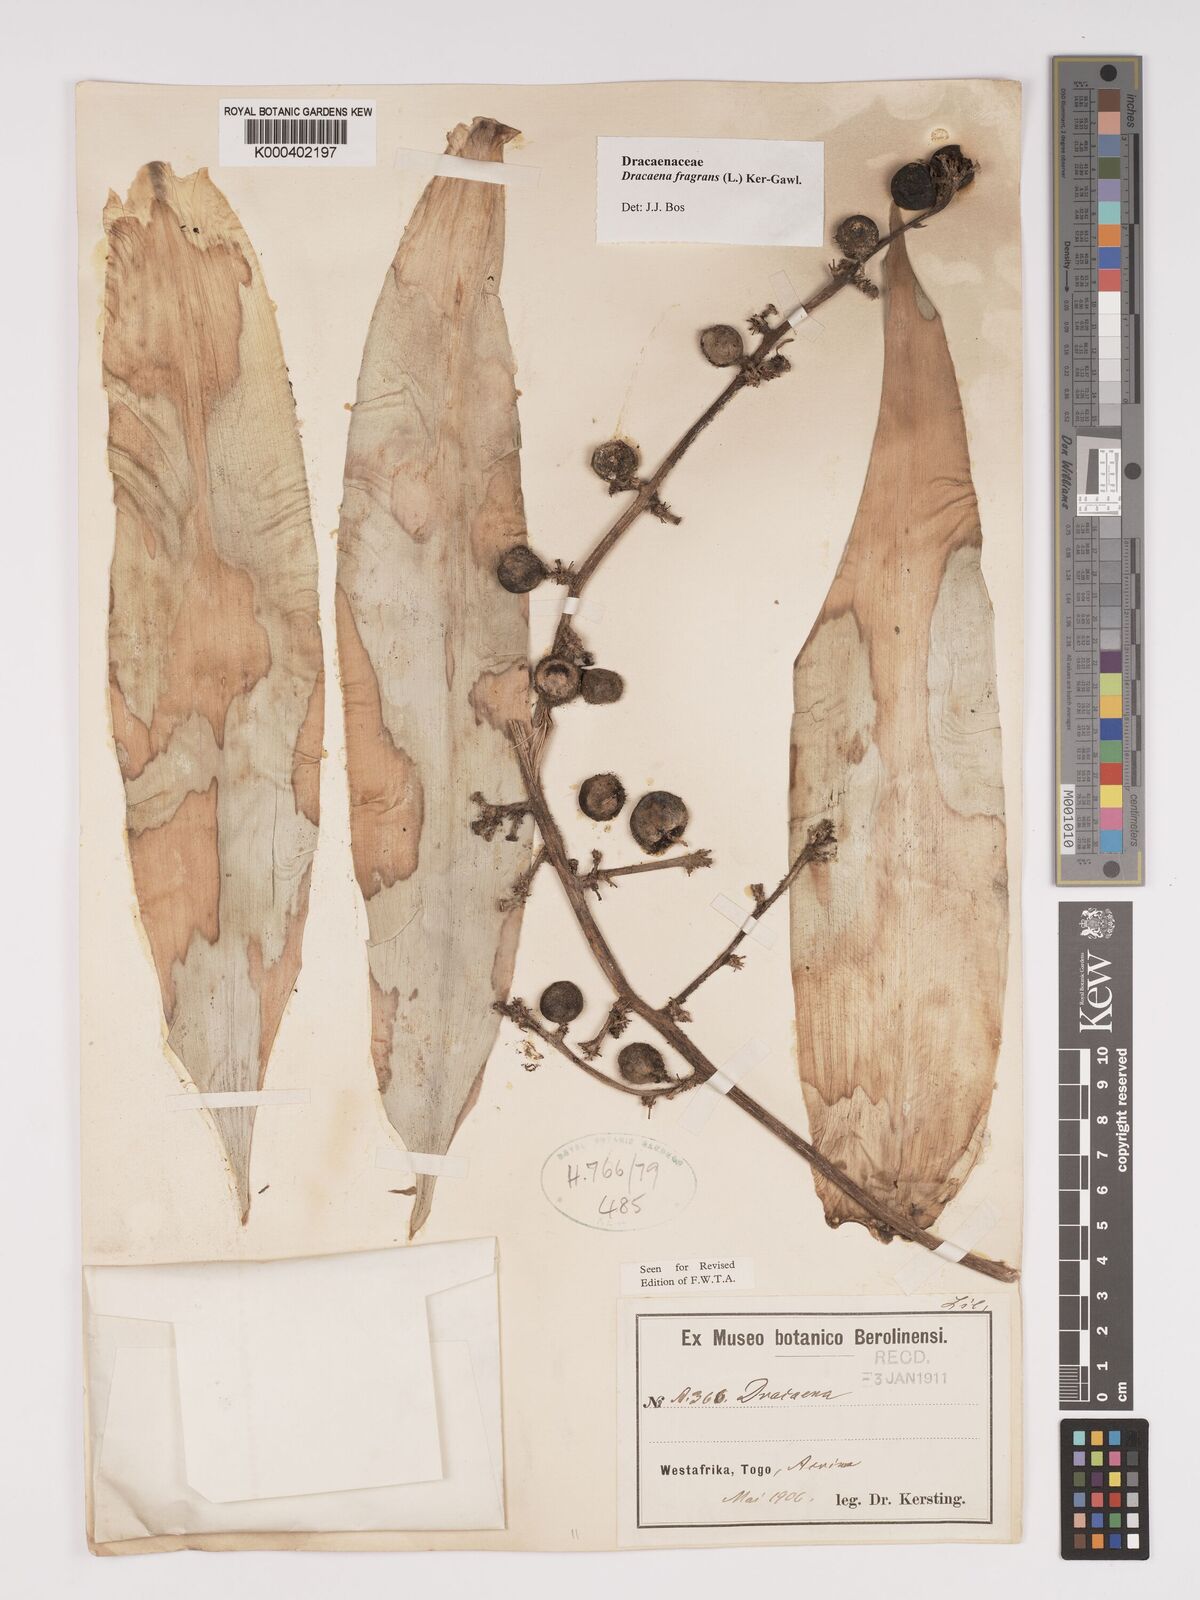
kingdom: Plantae
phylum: Tracheophyta
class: Liliopsida
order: Asparagales
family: Asparagaceae
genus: Dracaena
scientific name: Dracaena fragrans
